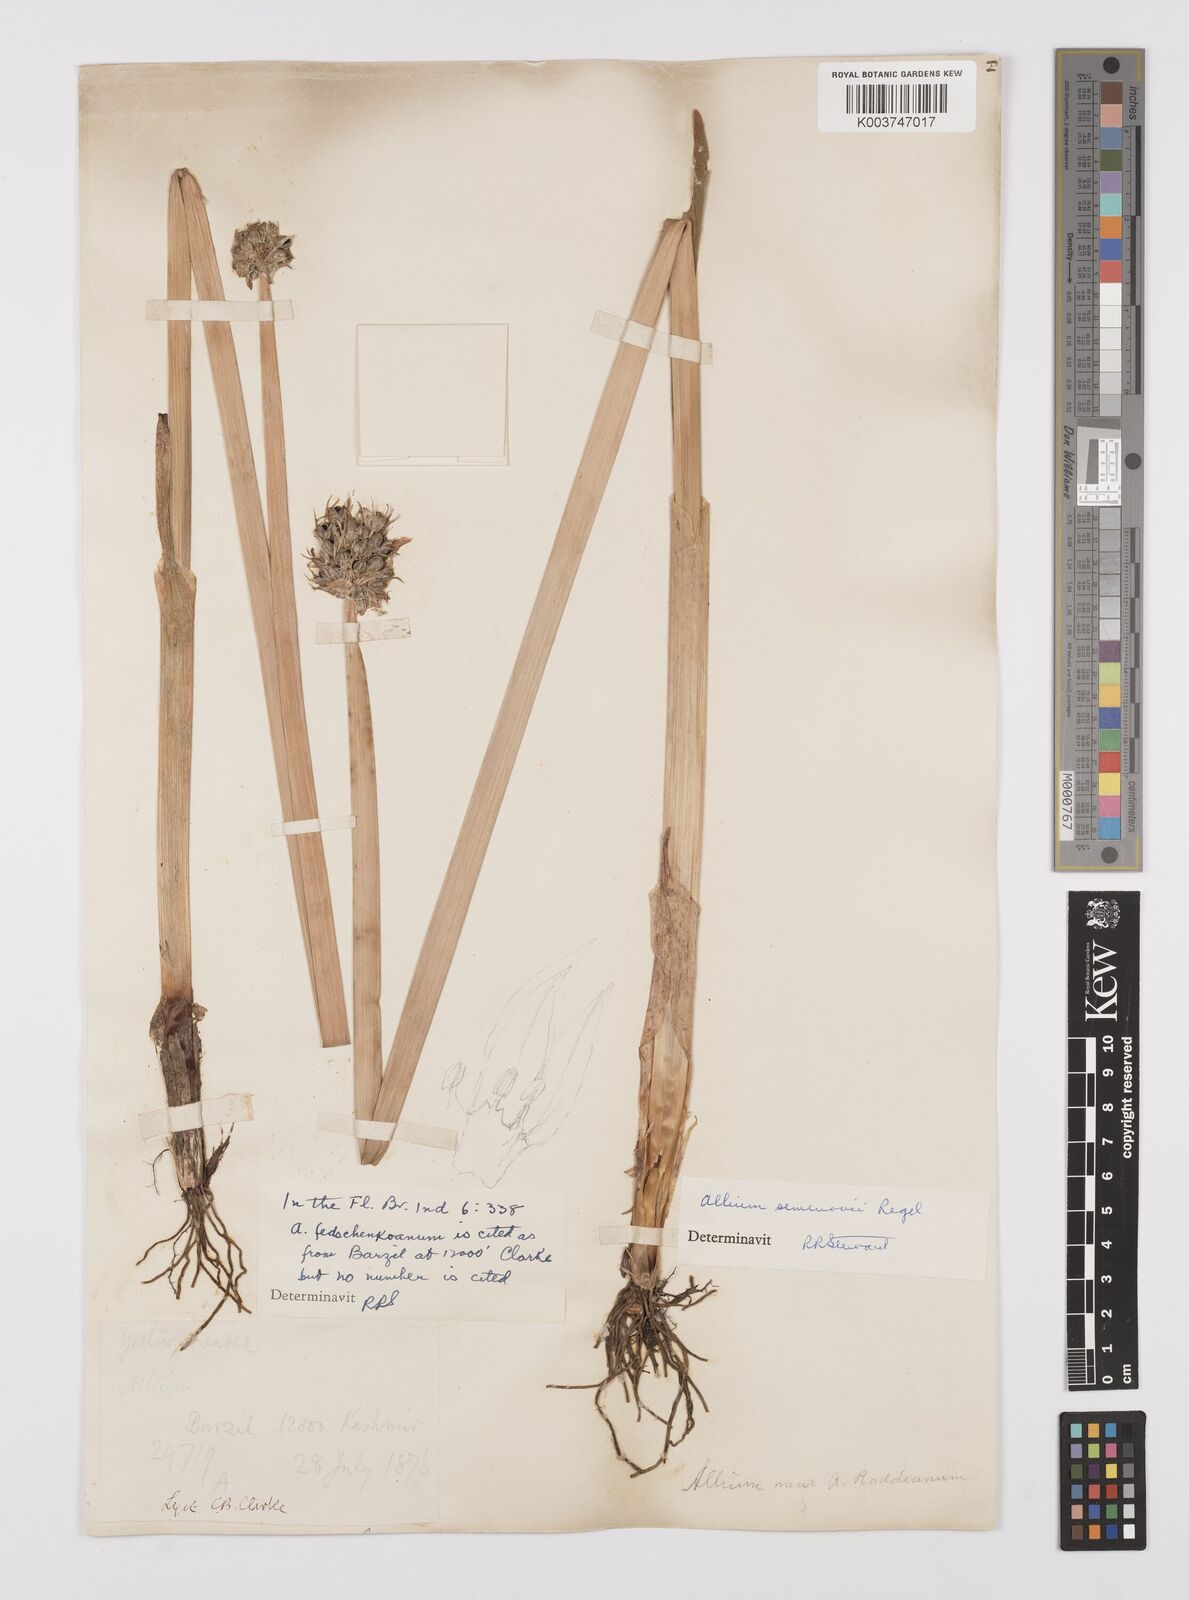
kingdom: Plantae
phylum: Tracheophyta
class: Liliopsida
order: Asparagales
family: Amaryllidaceae
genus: Allium
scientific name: Allium semenovii
